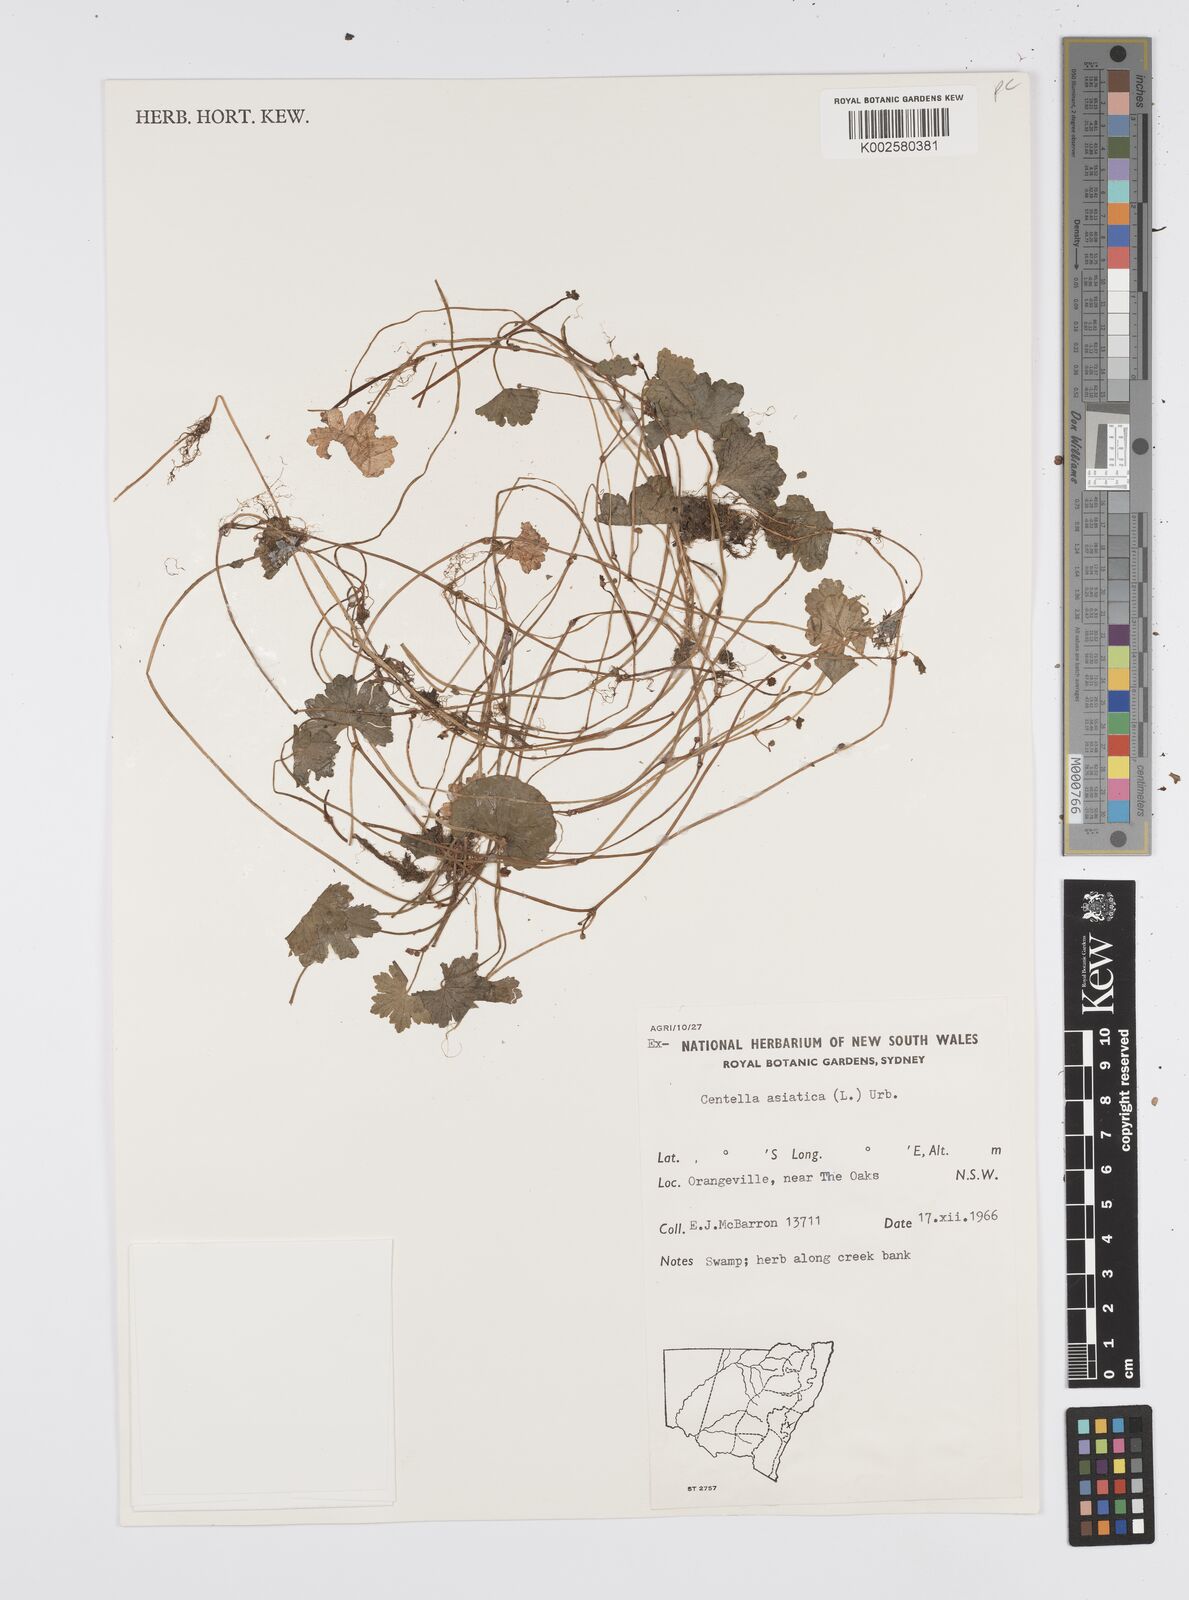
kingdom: Plantae
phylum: Tracheophyta
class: Magnoliopsida
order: Apiales
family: Apiaceae
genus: Centella
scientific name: Centella asiatica
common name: Spadeleaf
